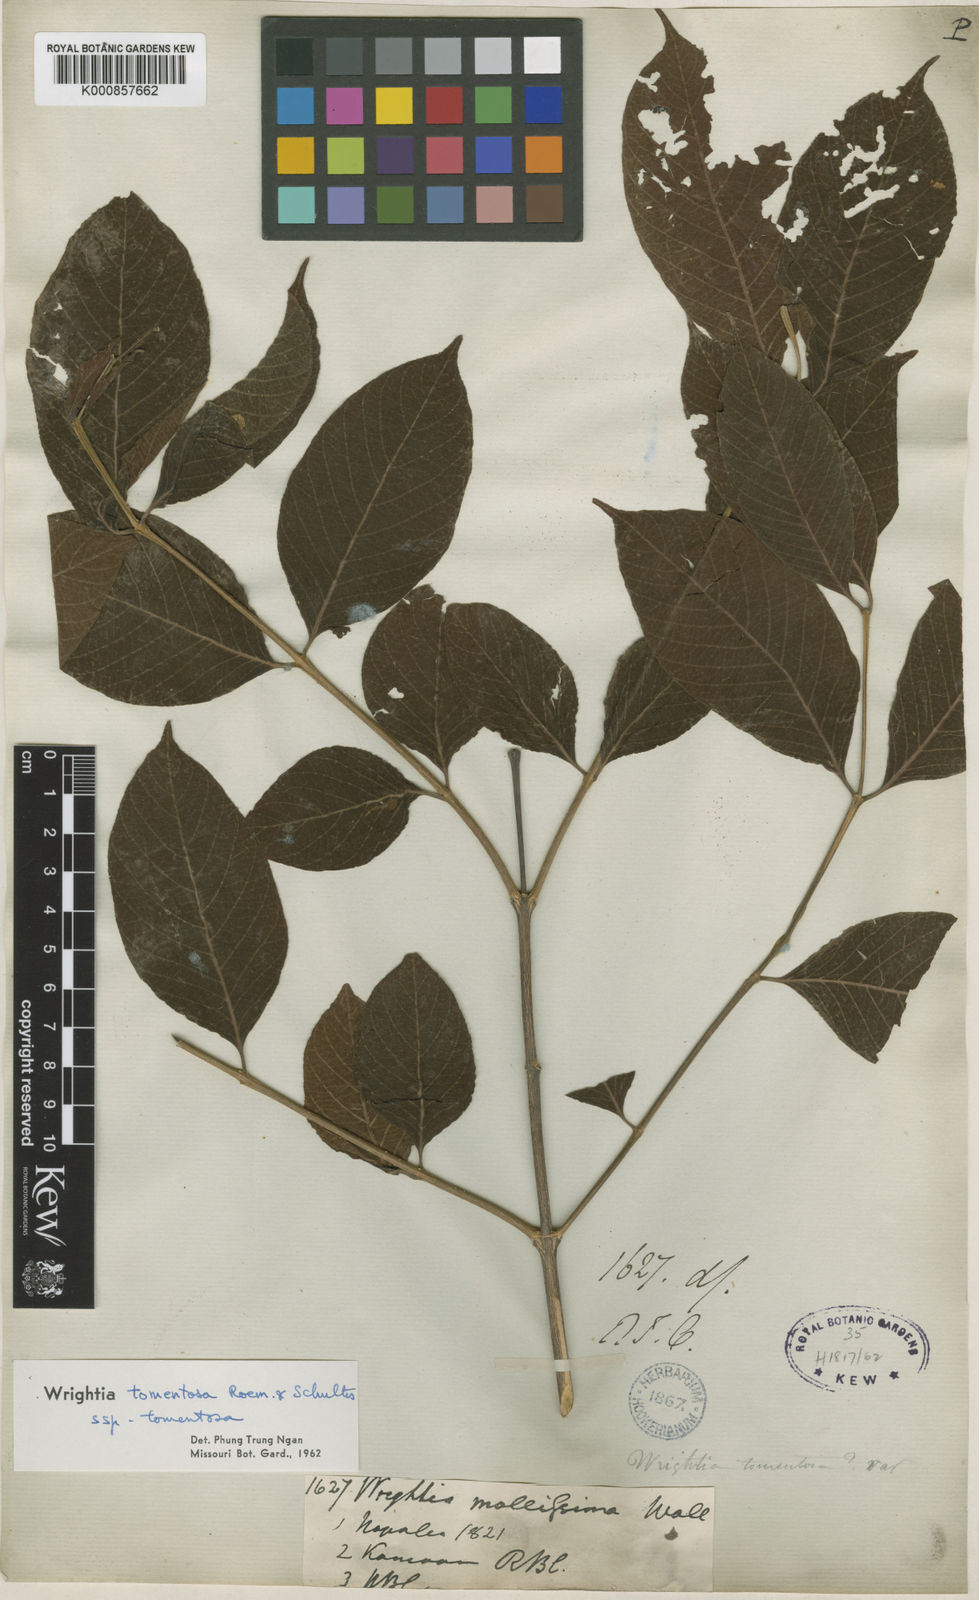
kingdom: Plantae
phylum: Tracheophyta
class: Magnoliopsida
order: Gentianales
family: Apocynaceae
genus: Wrightia
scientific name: Wrightia arborea
